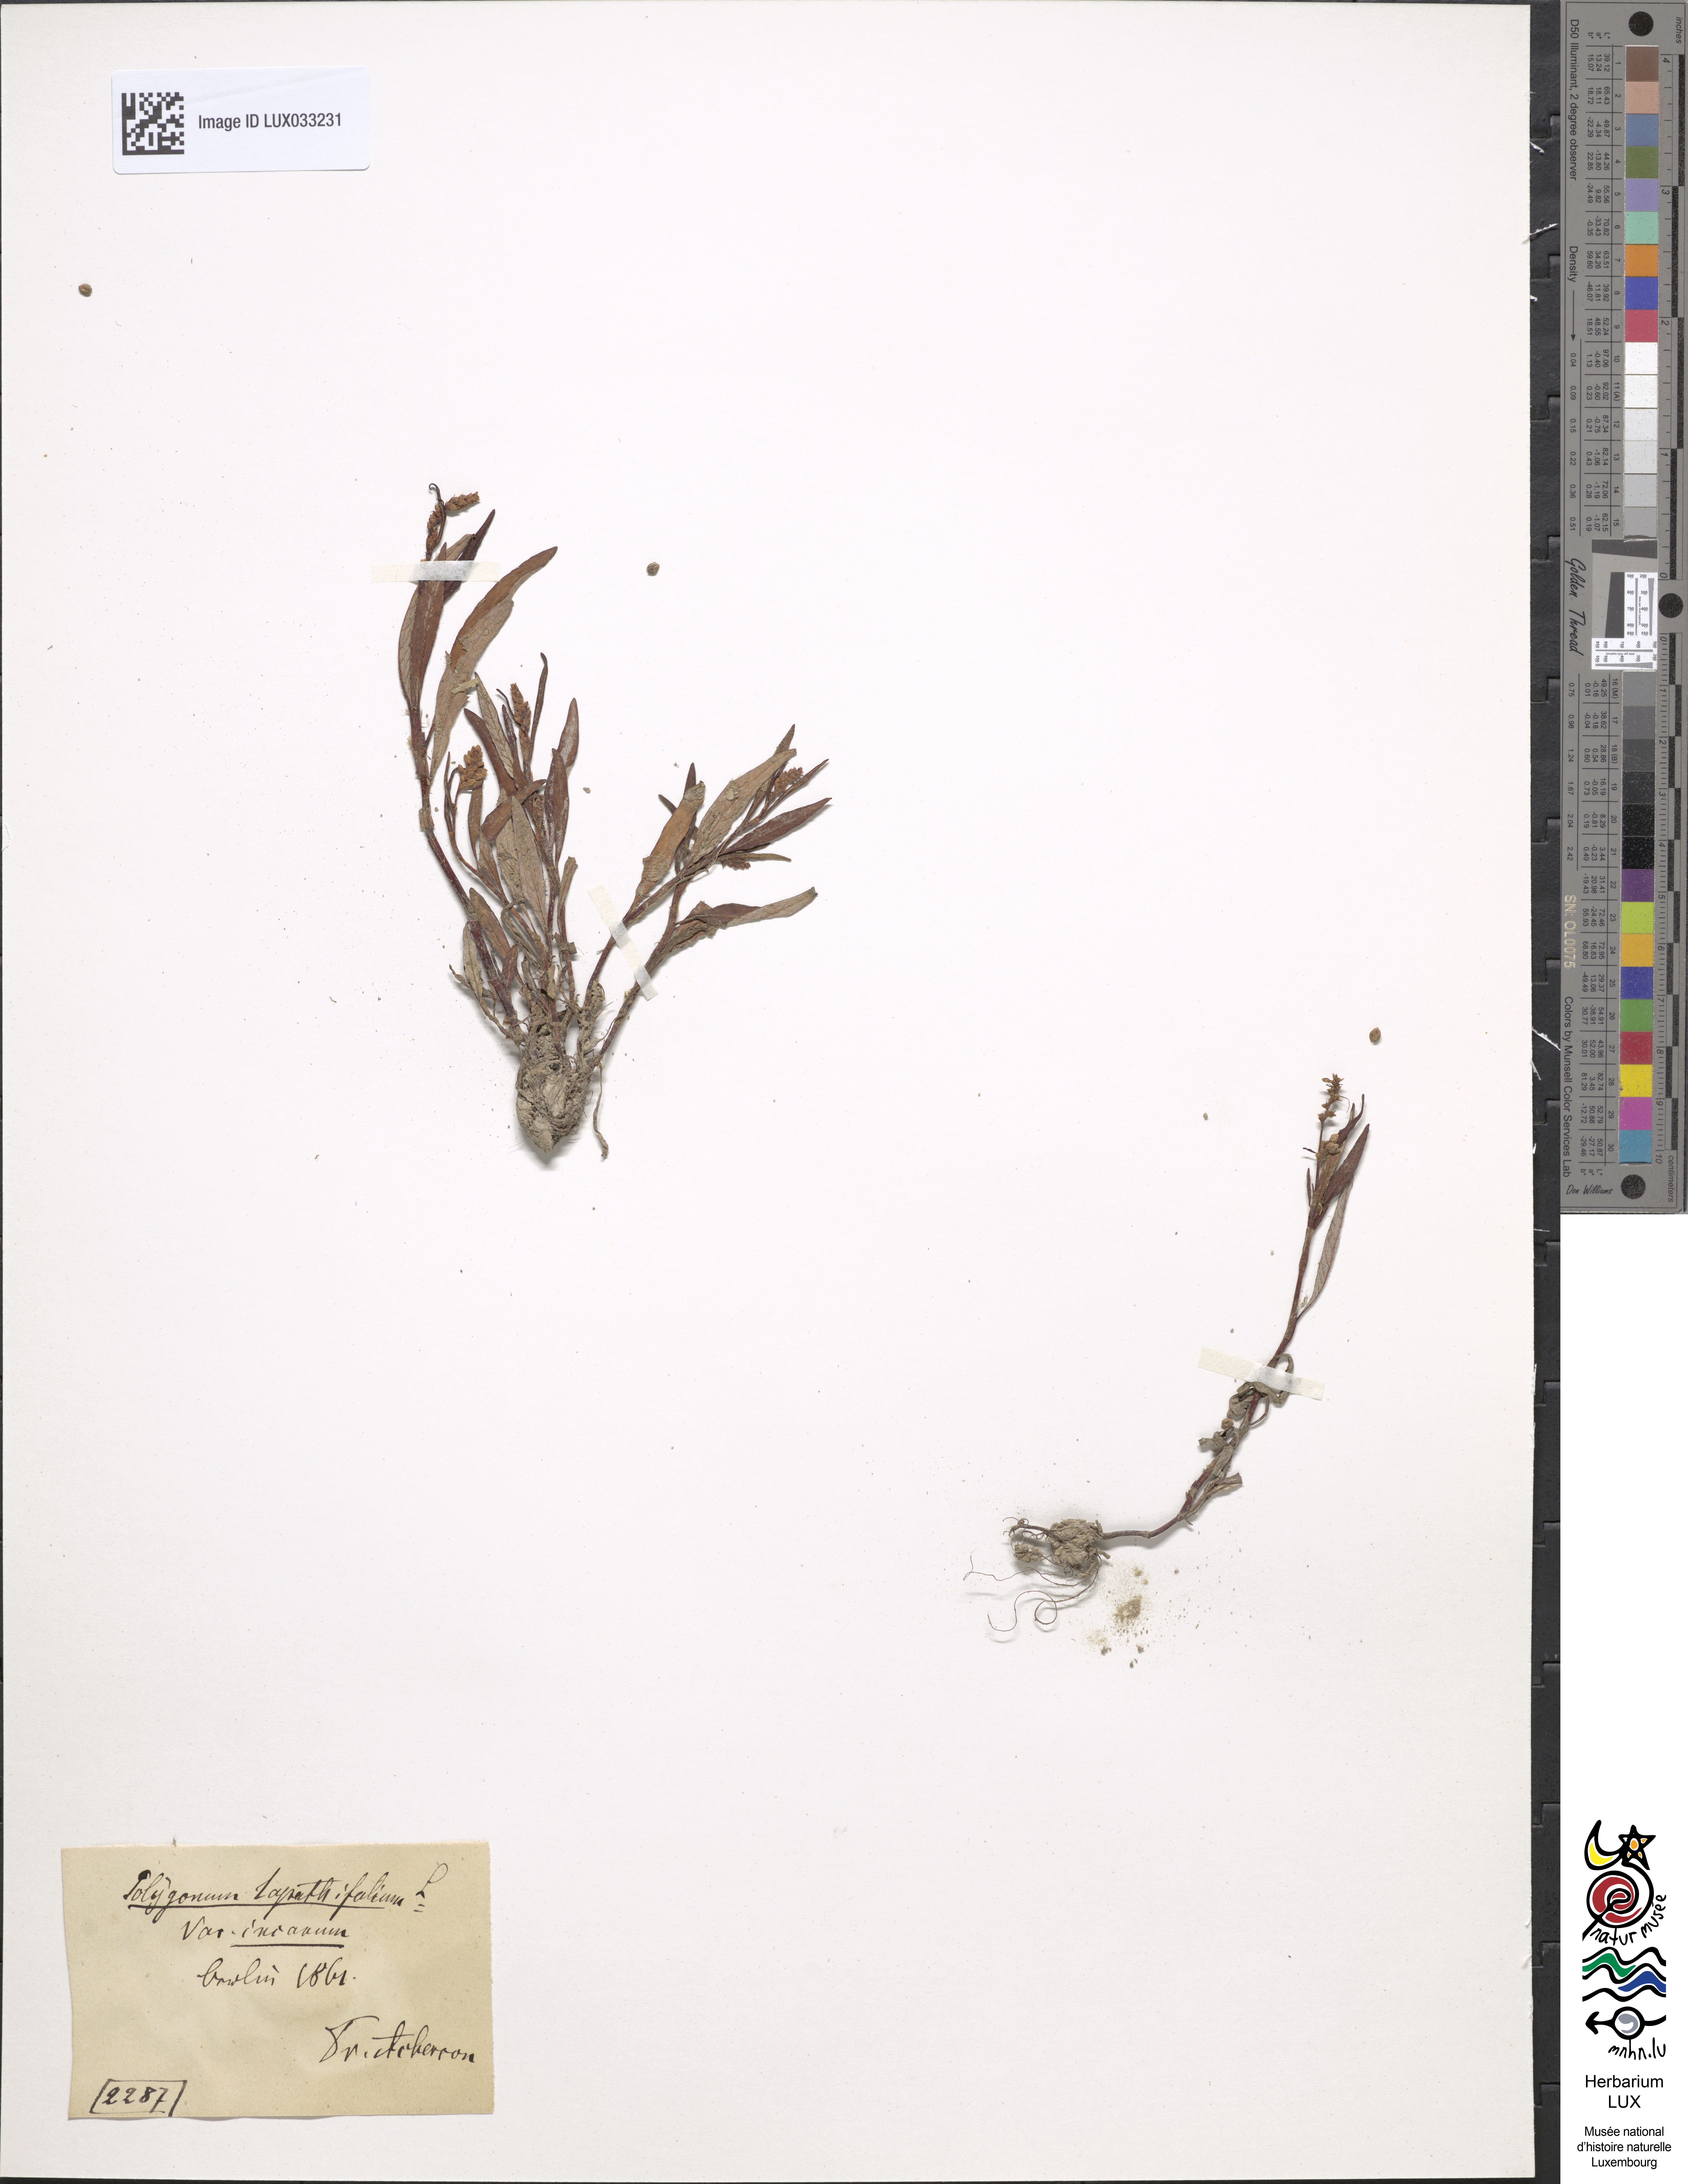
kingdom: Plantae
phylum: Tracheophyta
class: Magnoliopsida
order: Caryophyllales
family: Polygonaceae
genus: Persicaria
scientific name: Persicaria lapathifolia
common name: Curlytop knotweed
